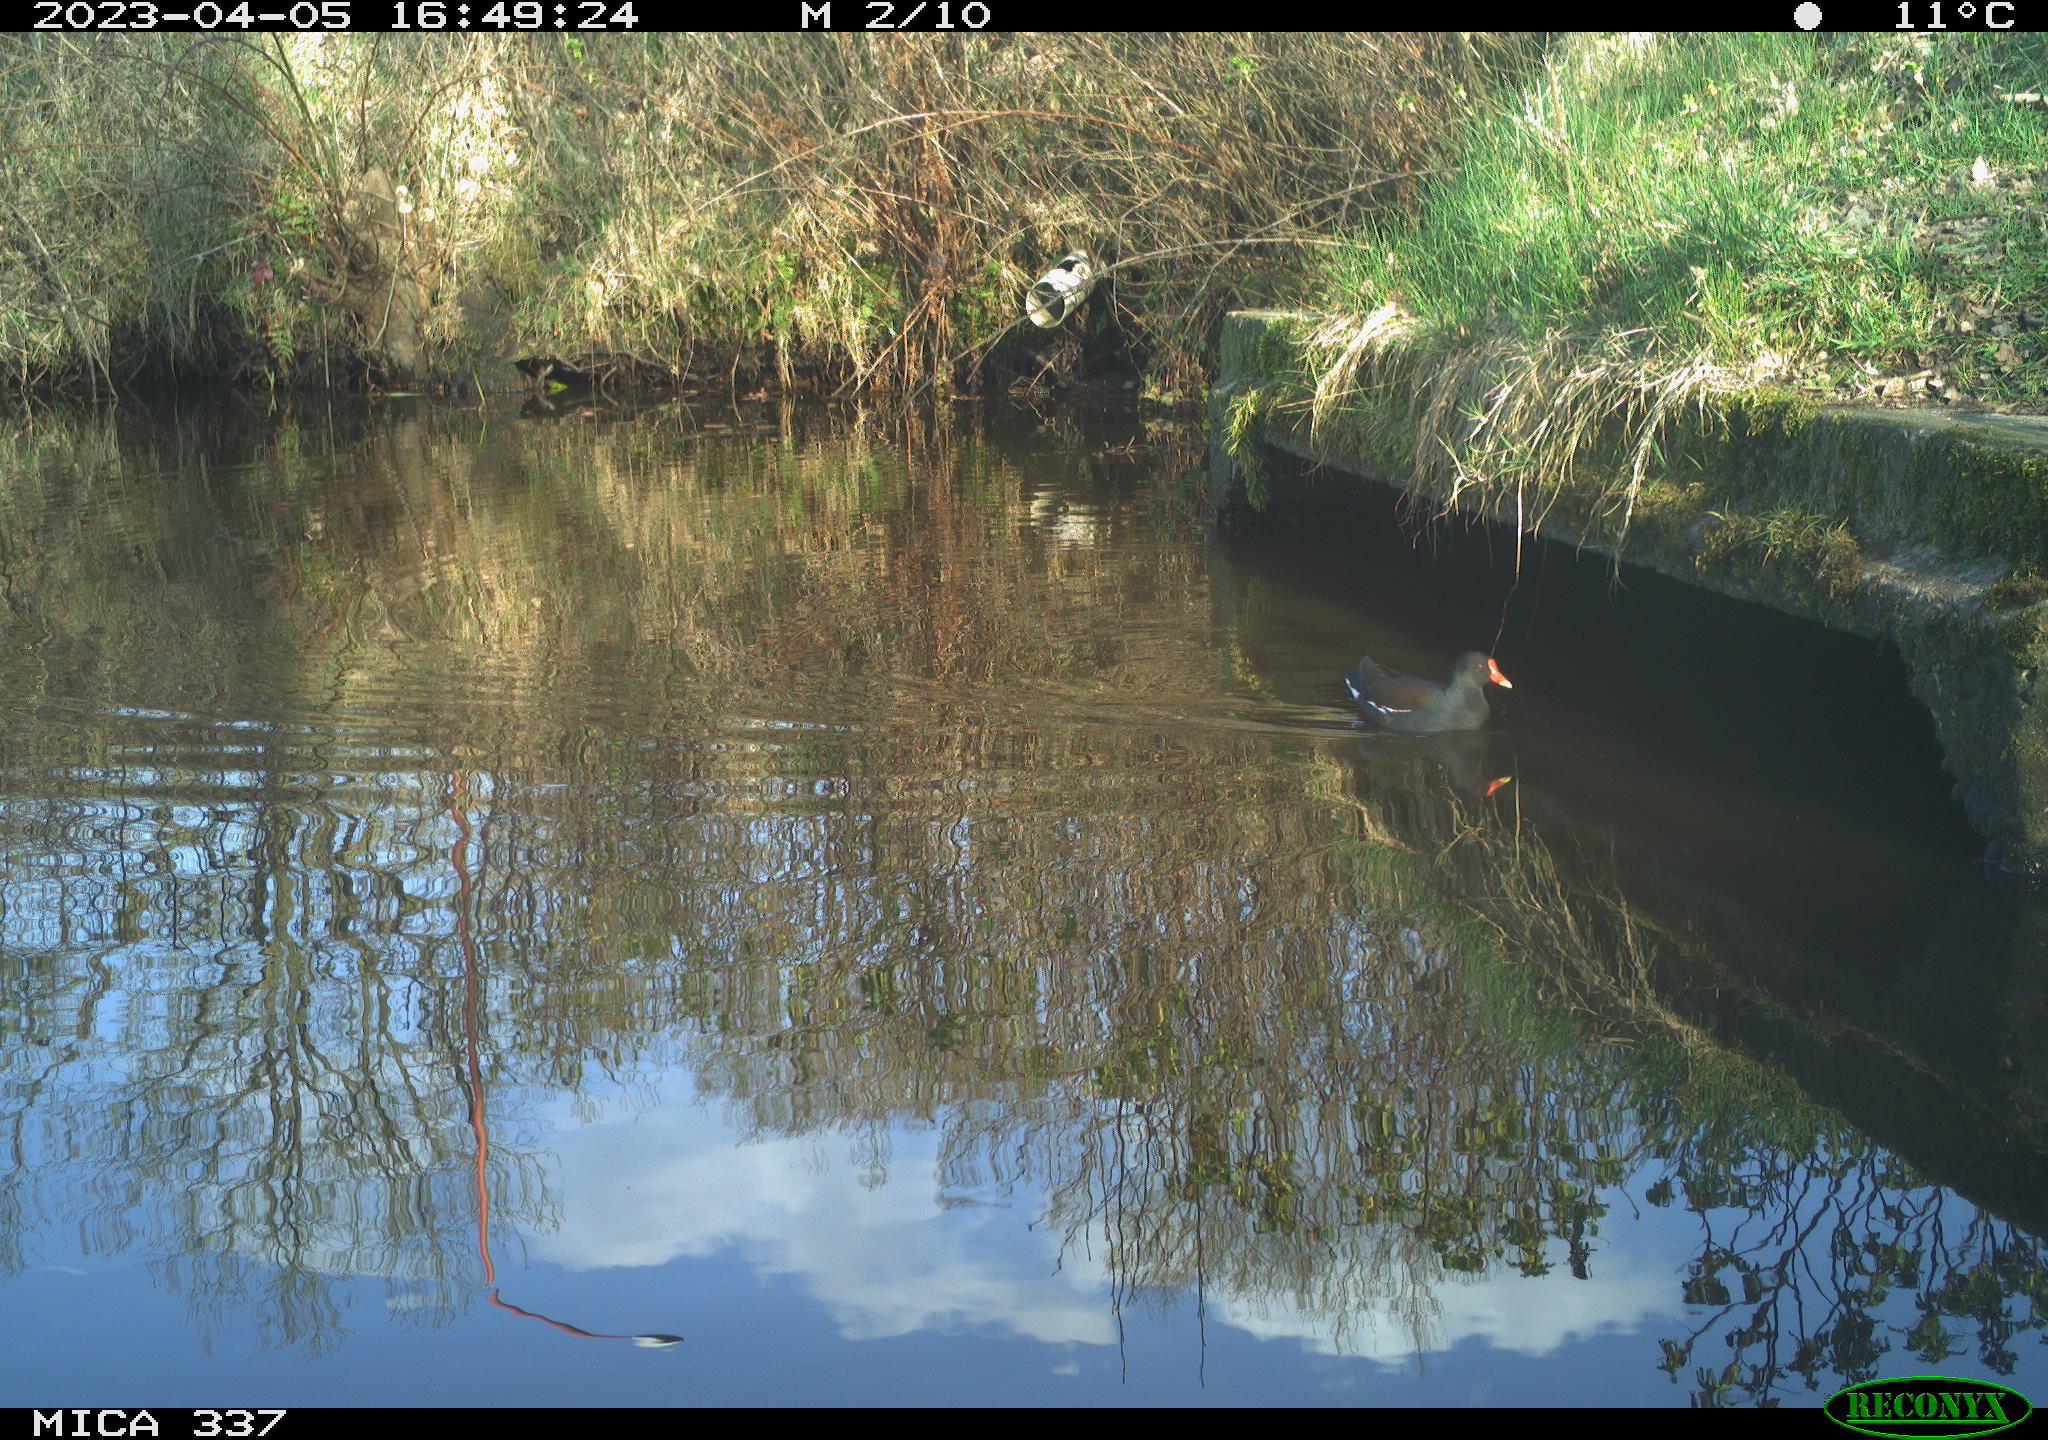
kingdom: Animalia
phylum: Chordata
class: Aves
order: Gruiformes
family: Rallidae
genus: Gallinula
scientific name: Gallinula chloropus
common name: Common moorhen
